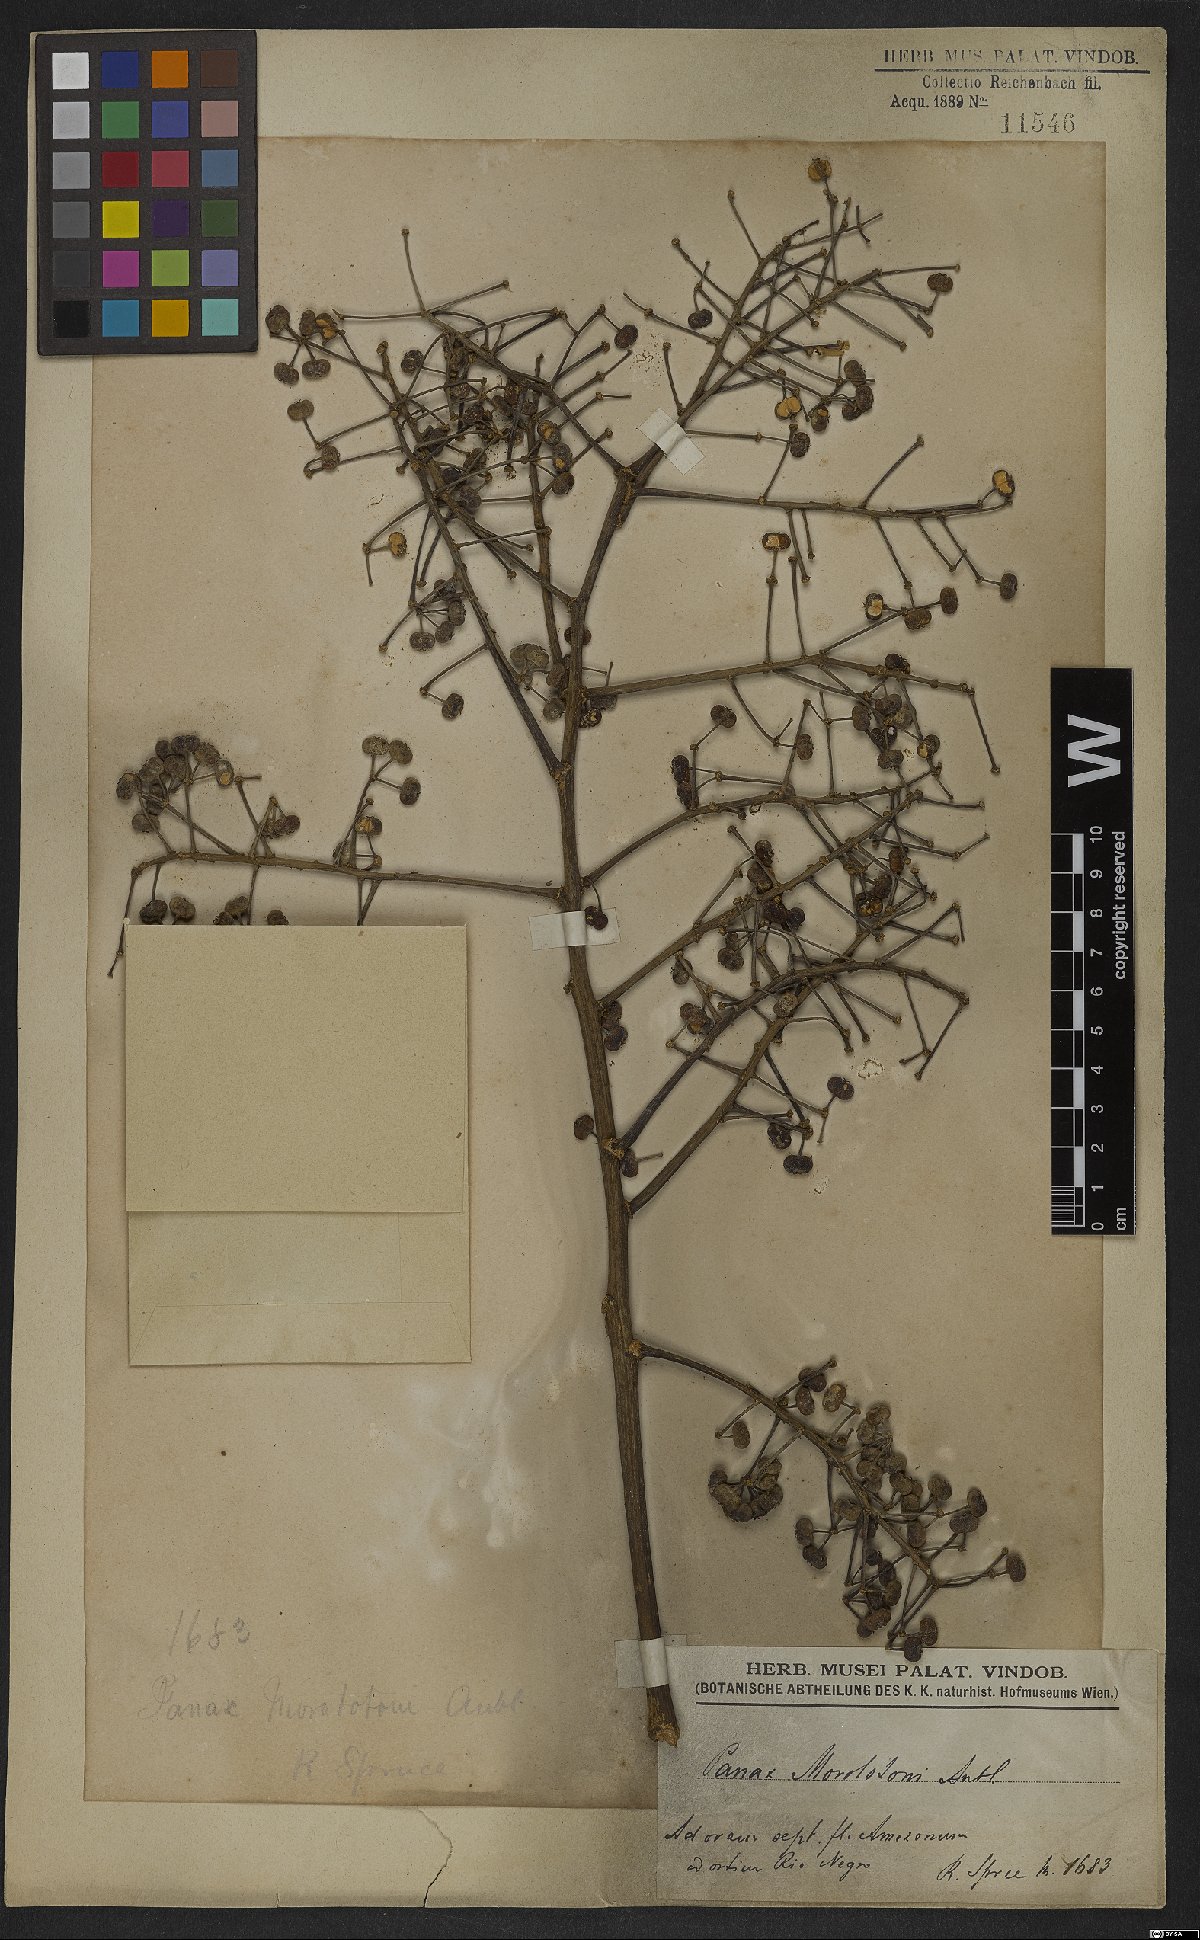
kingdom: Plantae
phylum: Tracheophyta
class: Magnoliopsida
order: Apiales
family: Araliaceae
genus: Didymopanax
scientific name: Didymopanax morototoni
